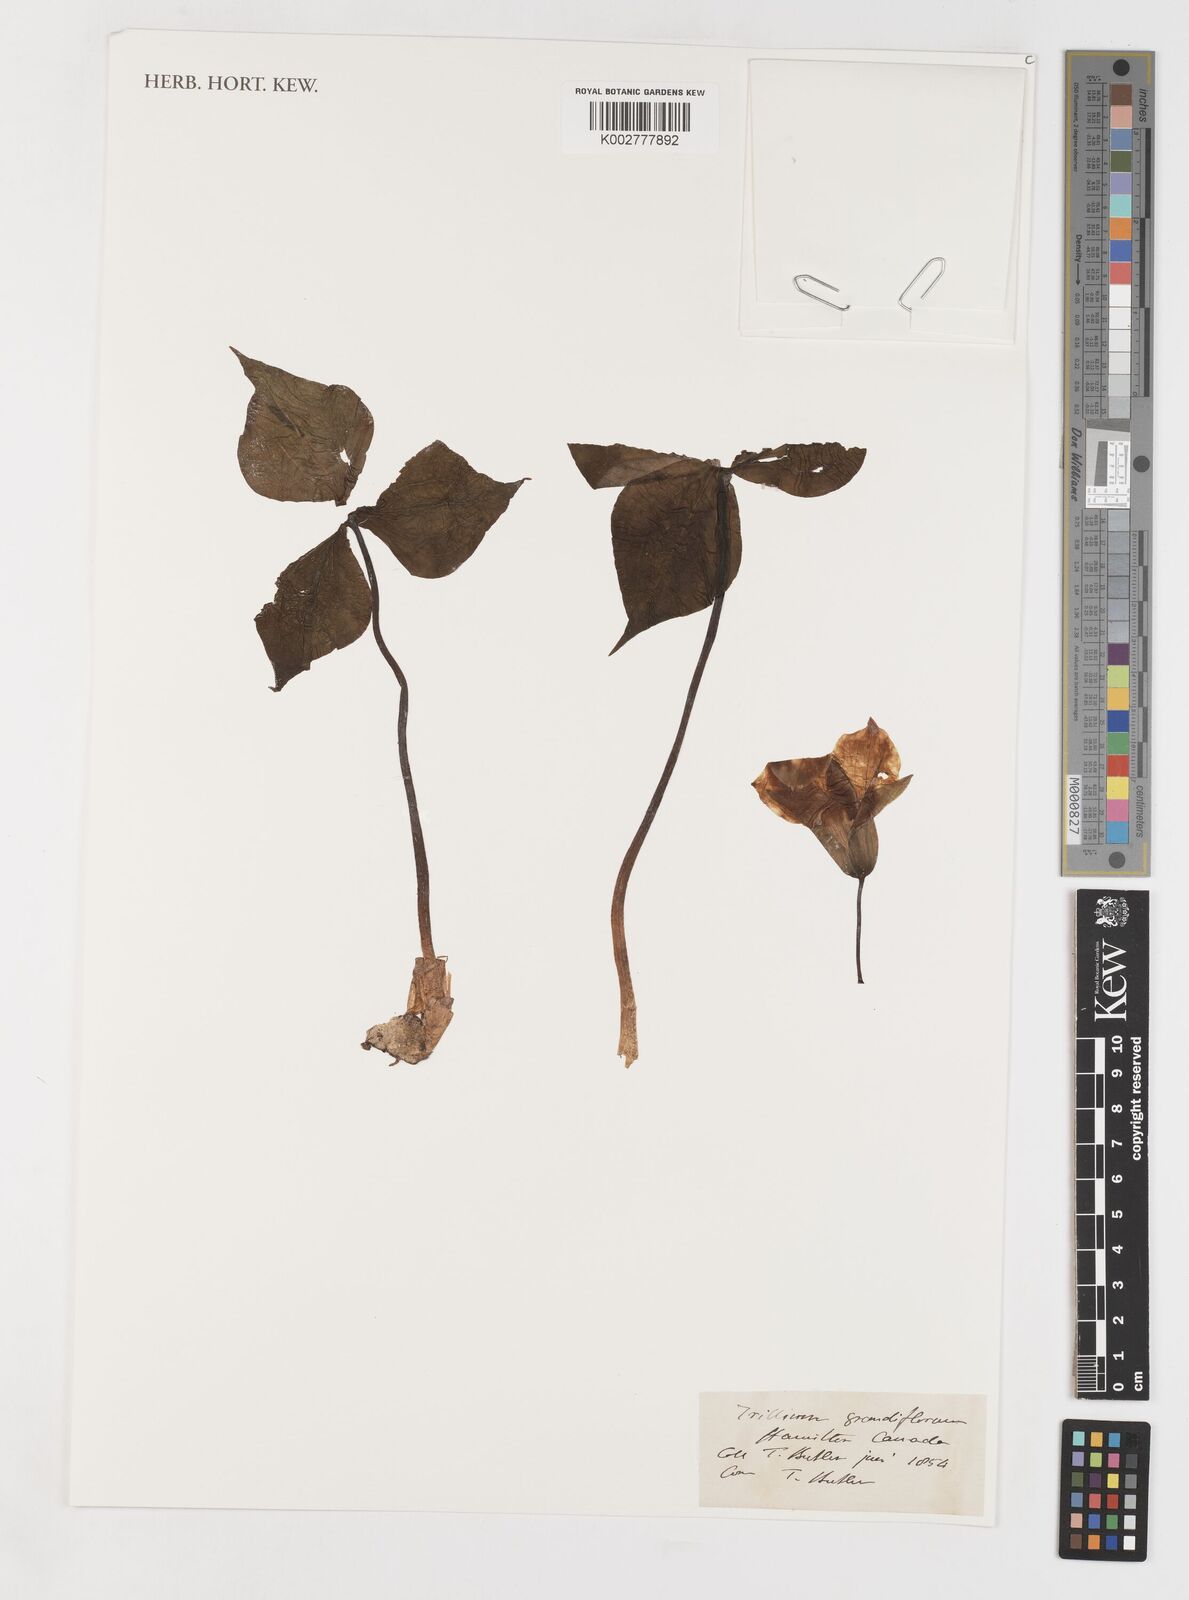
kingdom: Plantae
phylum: Tracheophyta
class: Liliopsida
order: Liliales
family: Melanthiaceae
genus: Trillium
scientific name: Trillium grandiflorum
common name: Great white trillium
